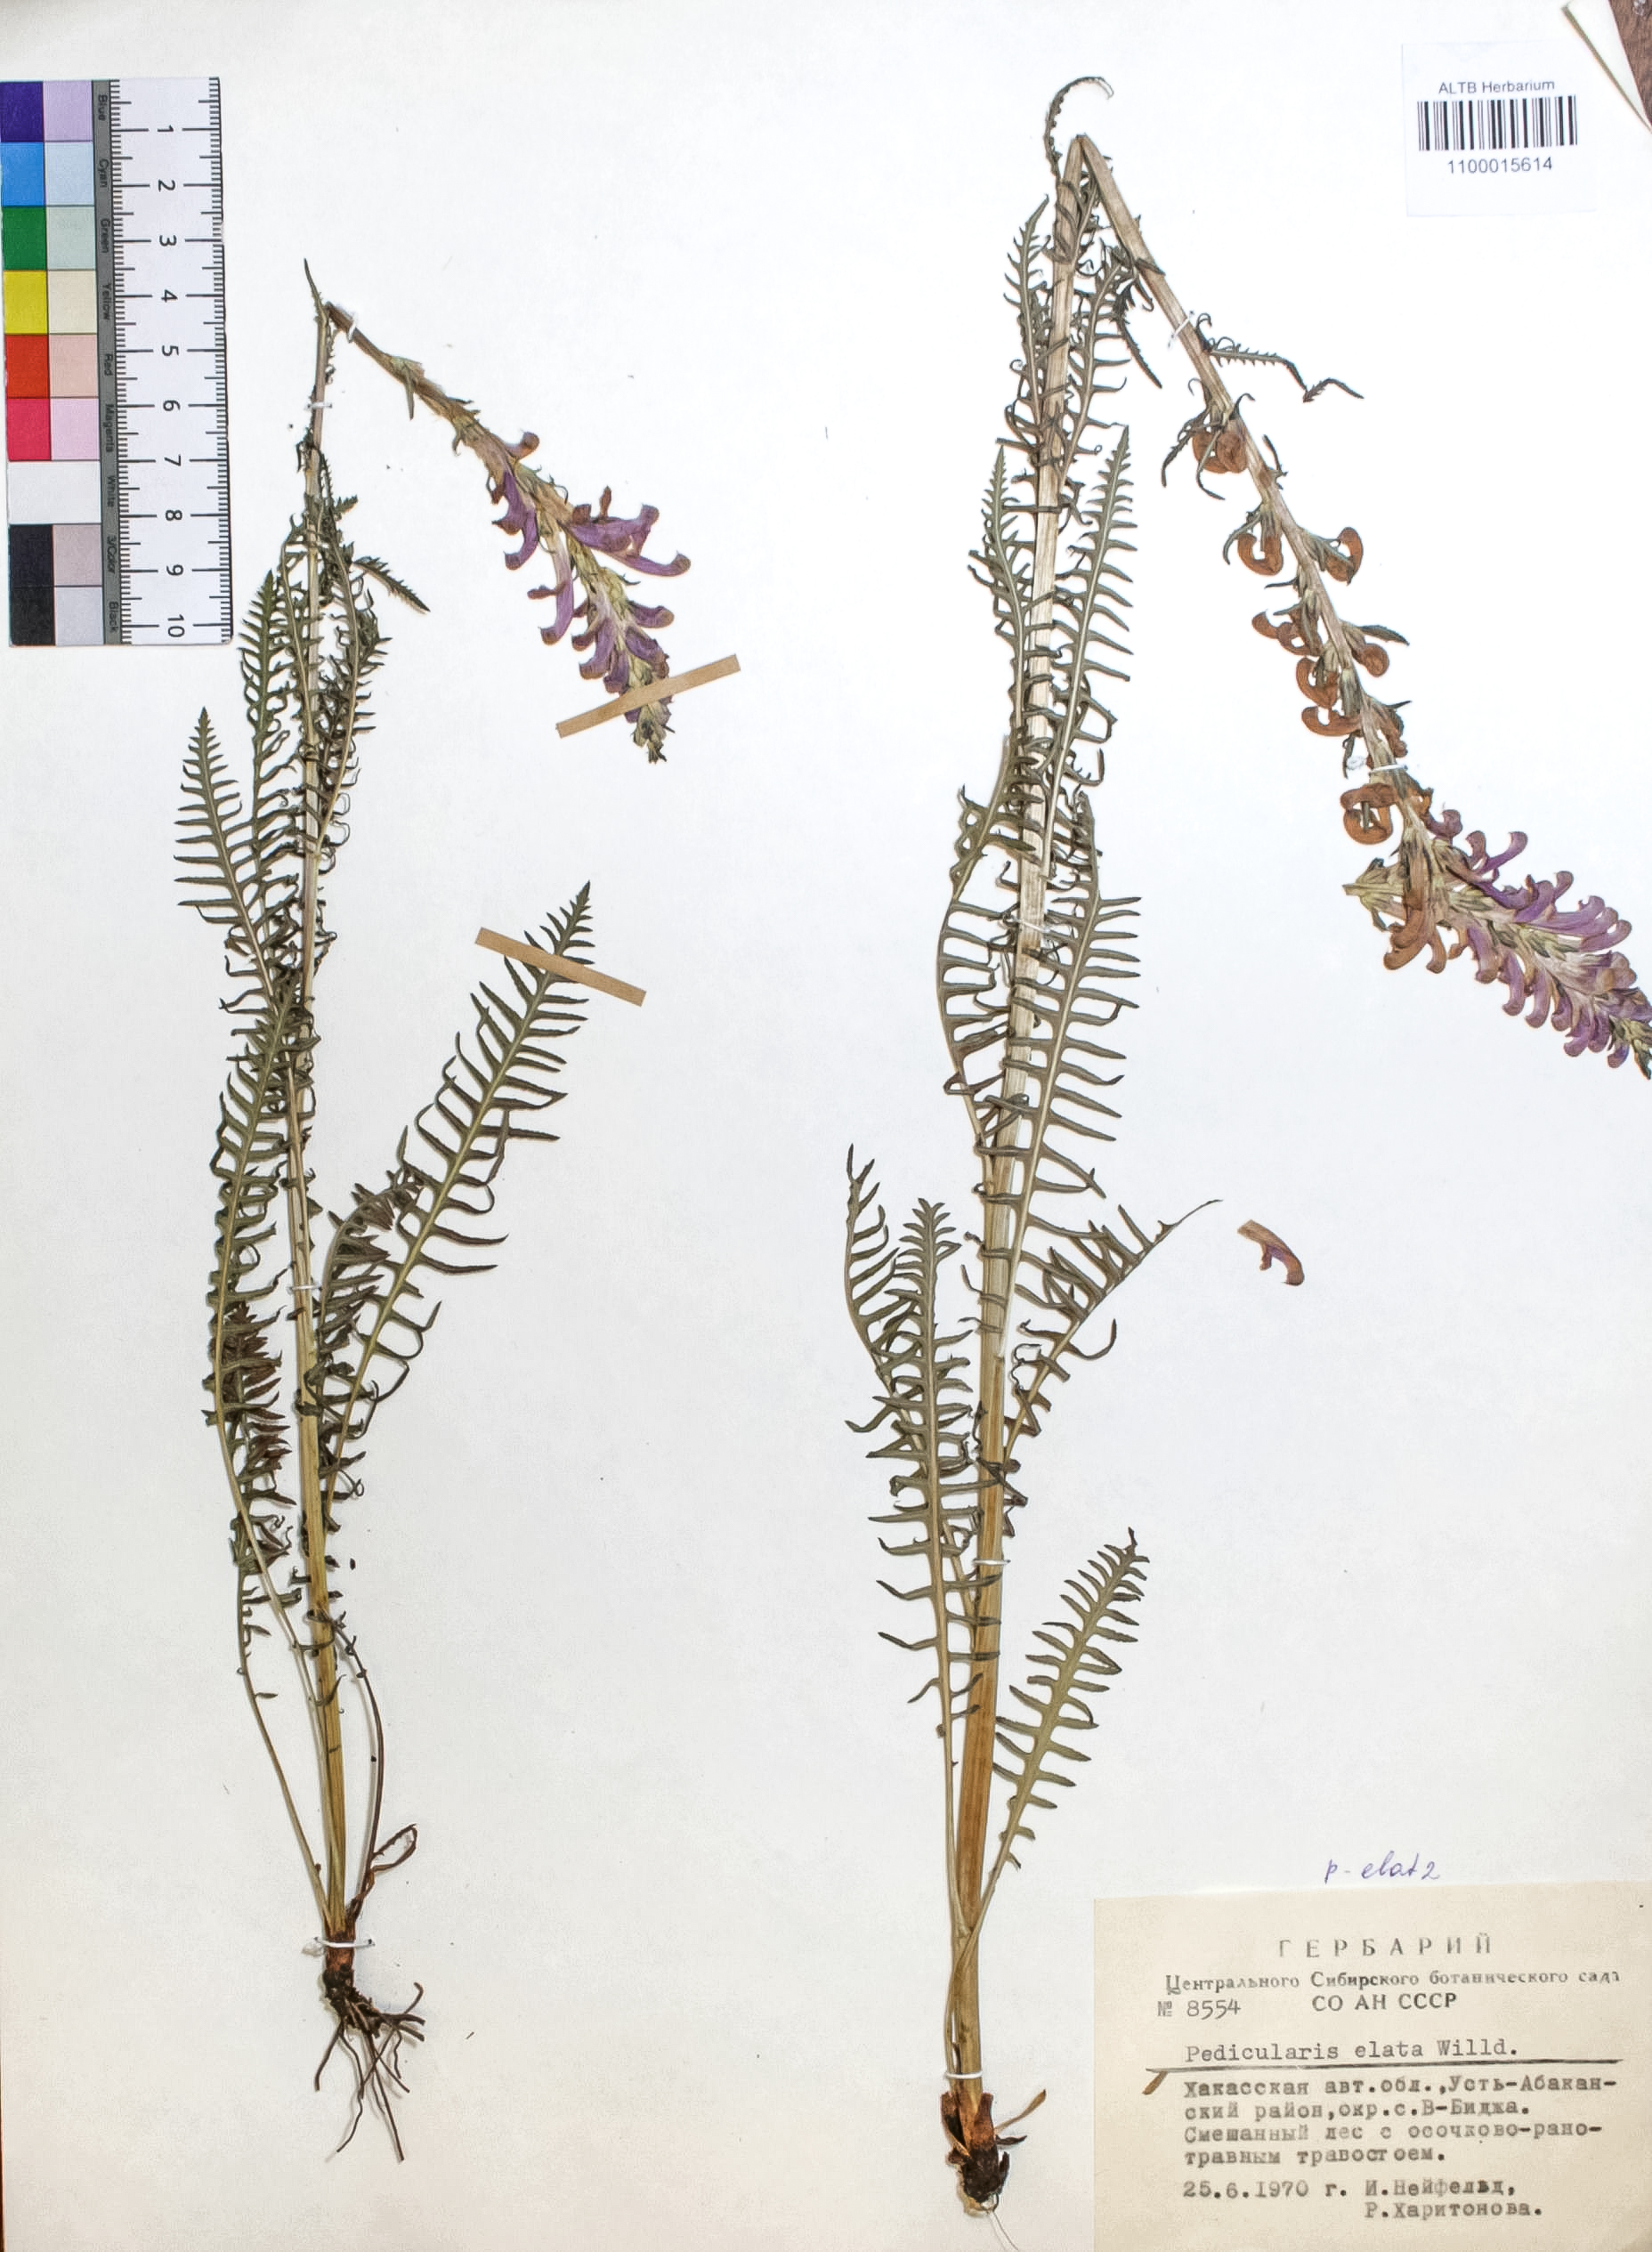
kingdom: Plantae
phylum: Tracheophyta
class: Magnoliopsida
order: Lamiales
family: Orobanchaceae
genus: Pedicularis
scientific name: Pedicularis elata
